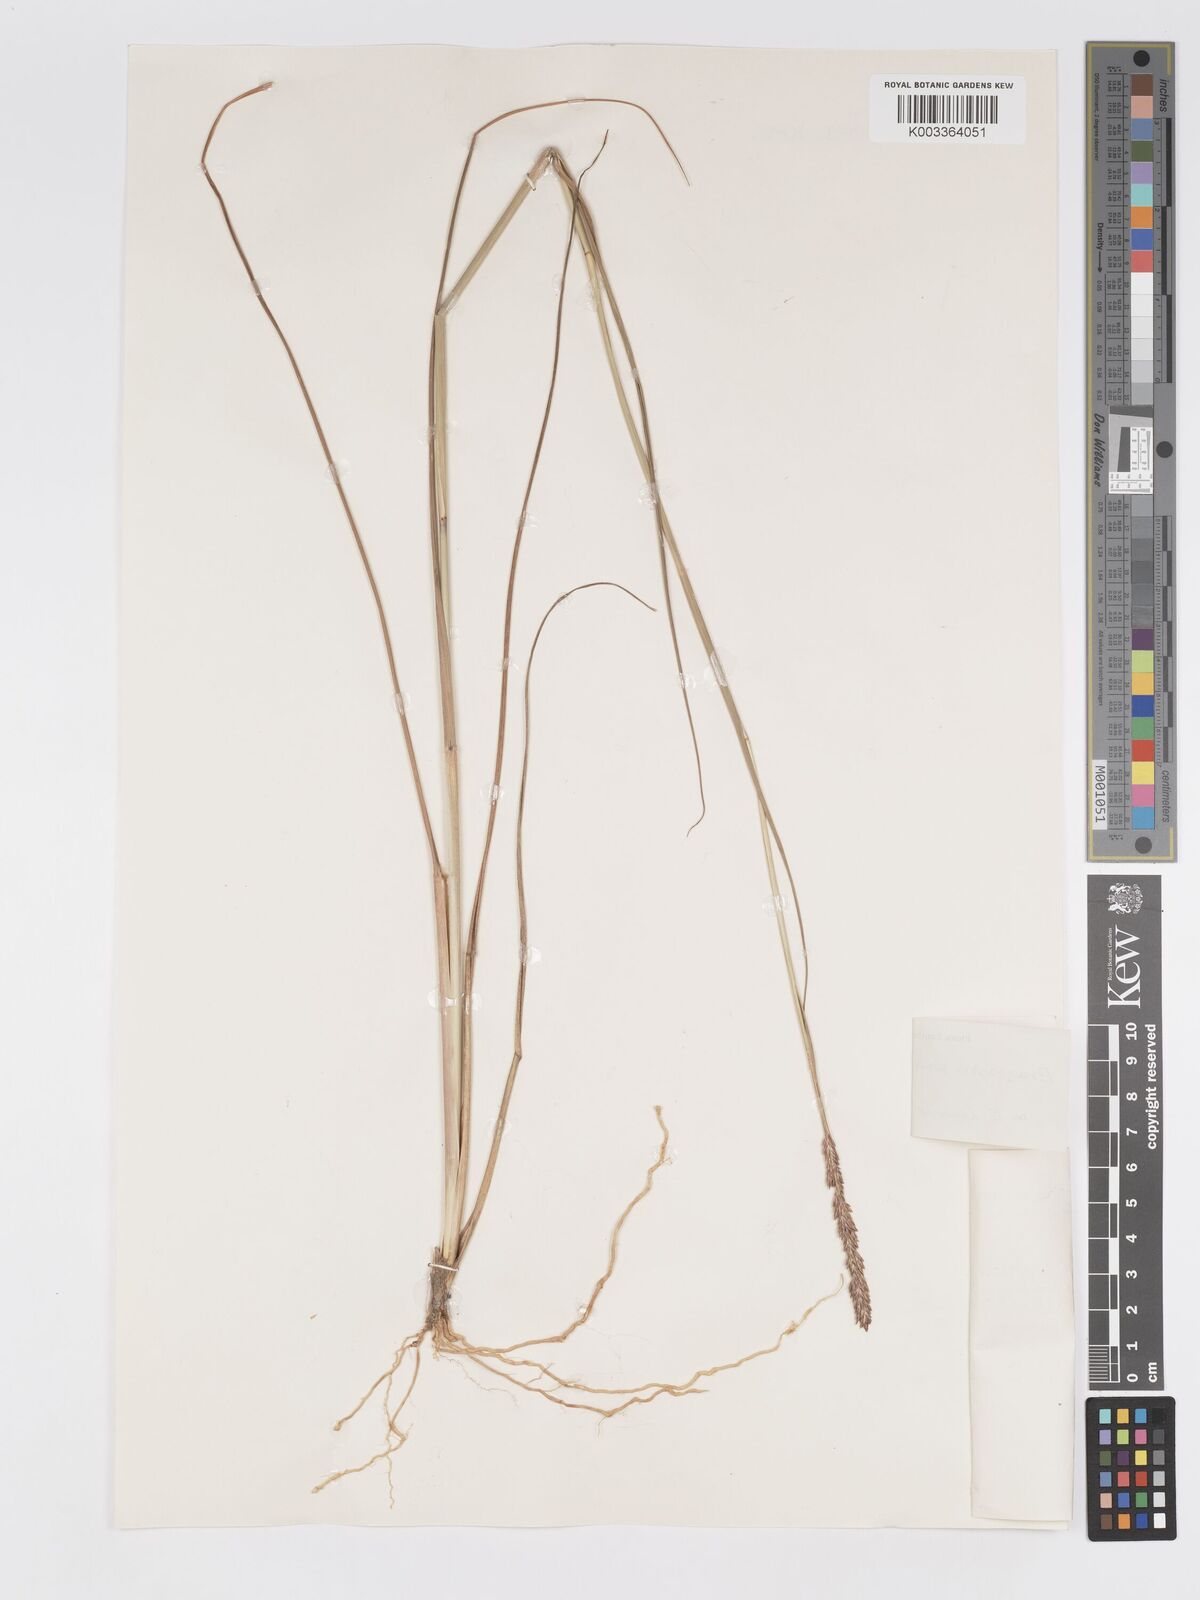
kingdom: Plantae
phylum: Tracheophyta
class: Liliopsida
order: Poales
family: Poaceae
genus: Eragrostis
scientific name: Eragrostis chapelieri
